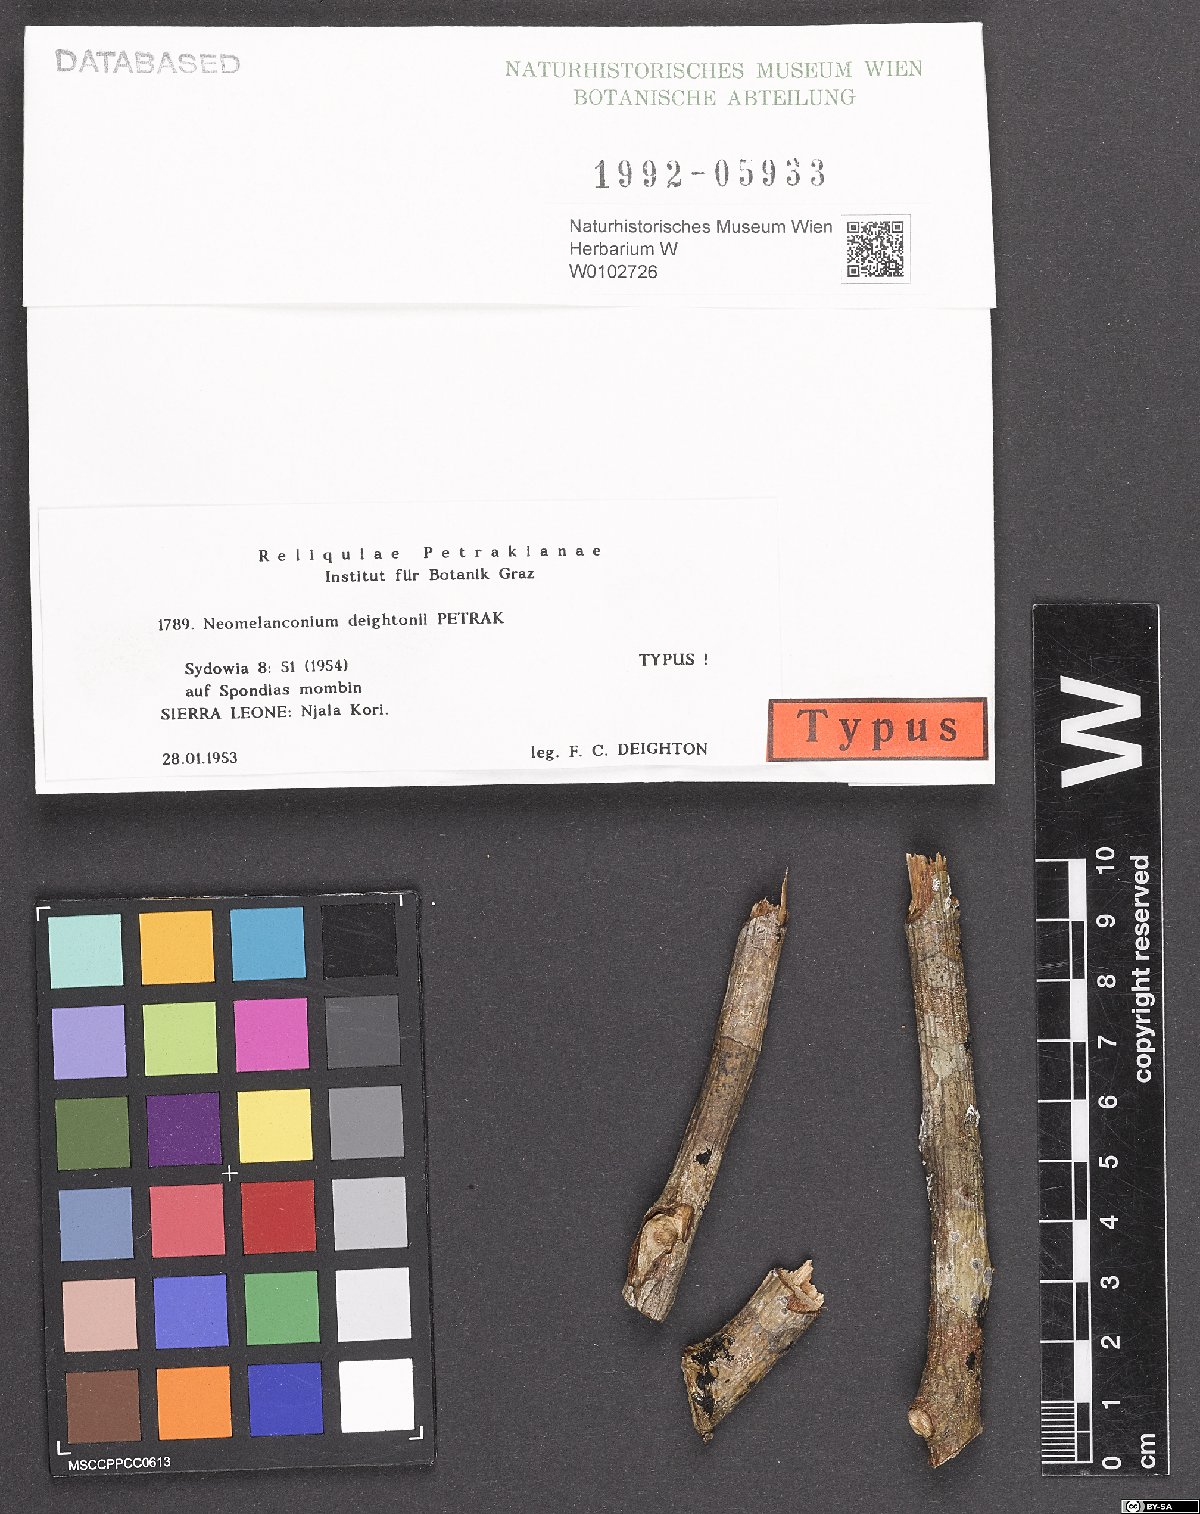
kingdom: Fungi
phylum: Ascomycota
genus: Neomelanconium
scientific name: Neomelanconium deightonii
